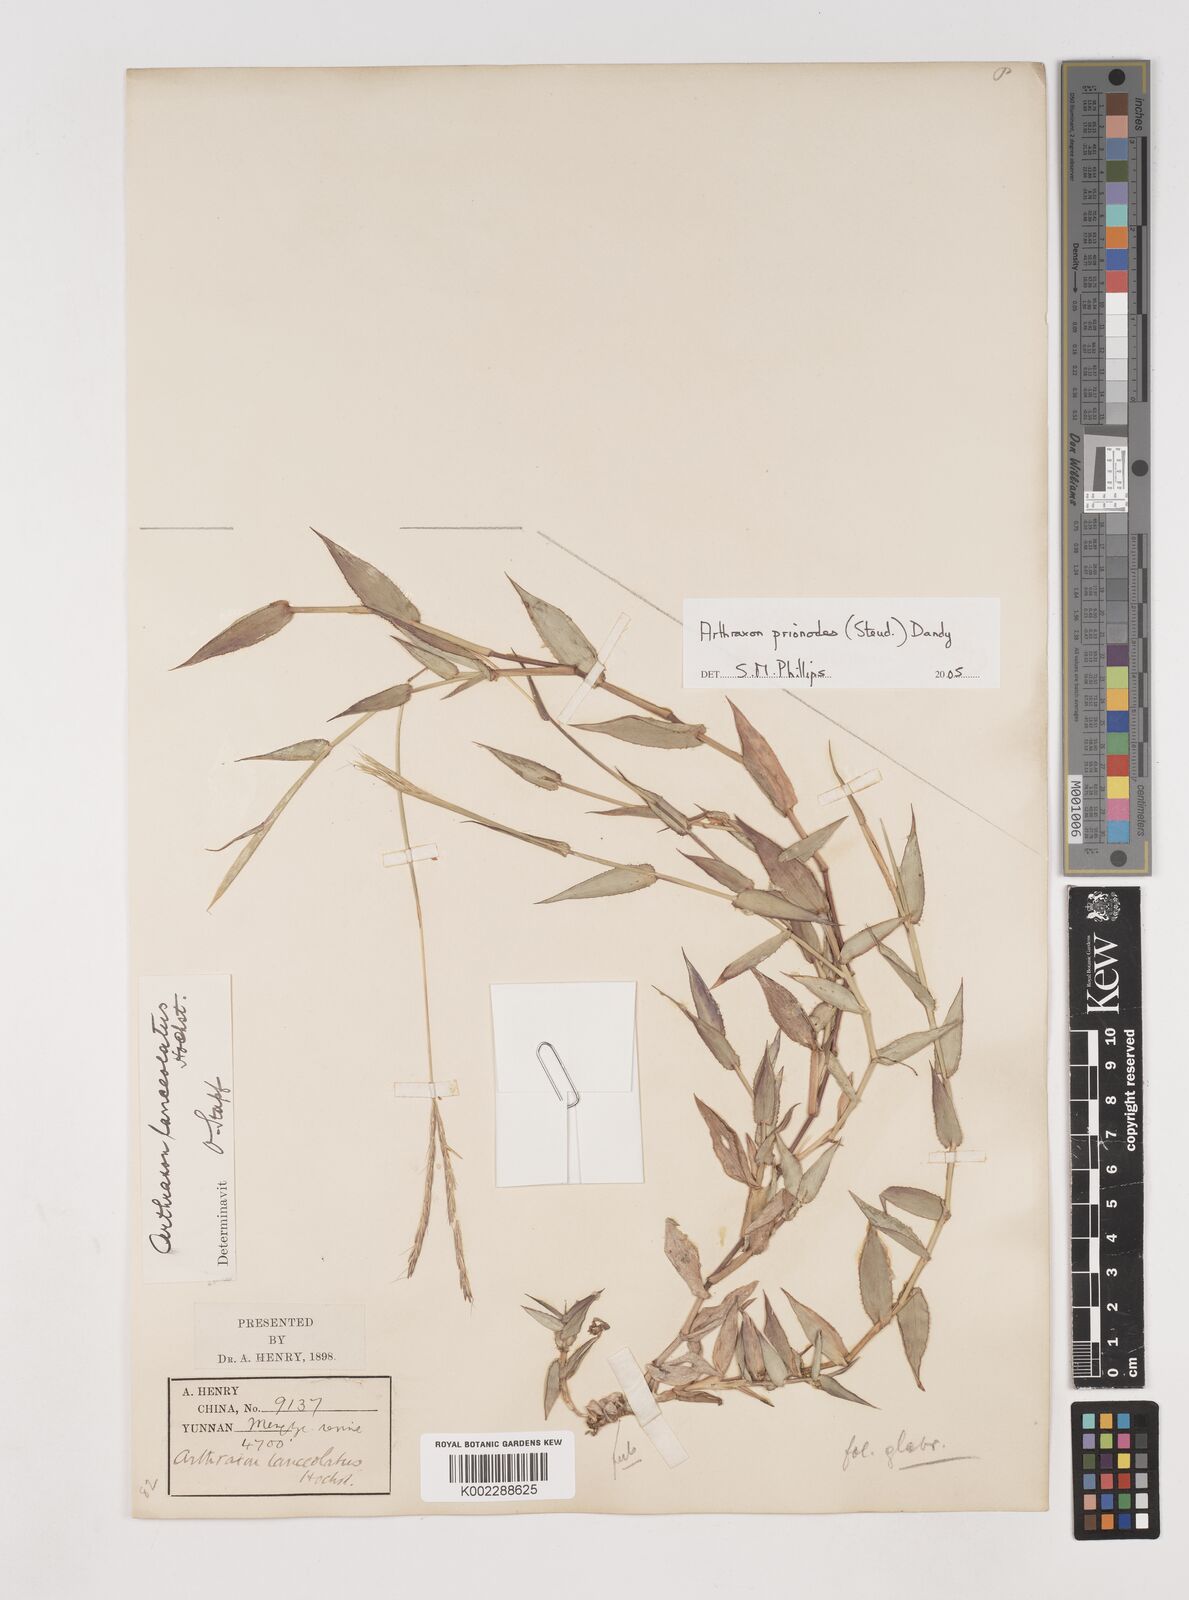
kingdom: Plantae
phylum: Tracheophyta
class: Liliopsida
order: Poales
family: Poaceae
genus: Arthraxon
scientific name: Arthraxon prionodes
